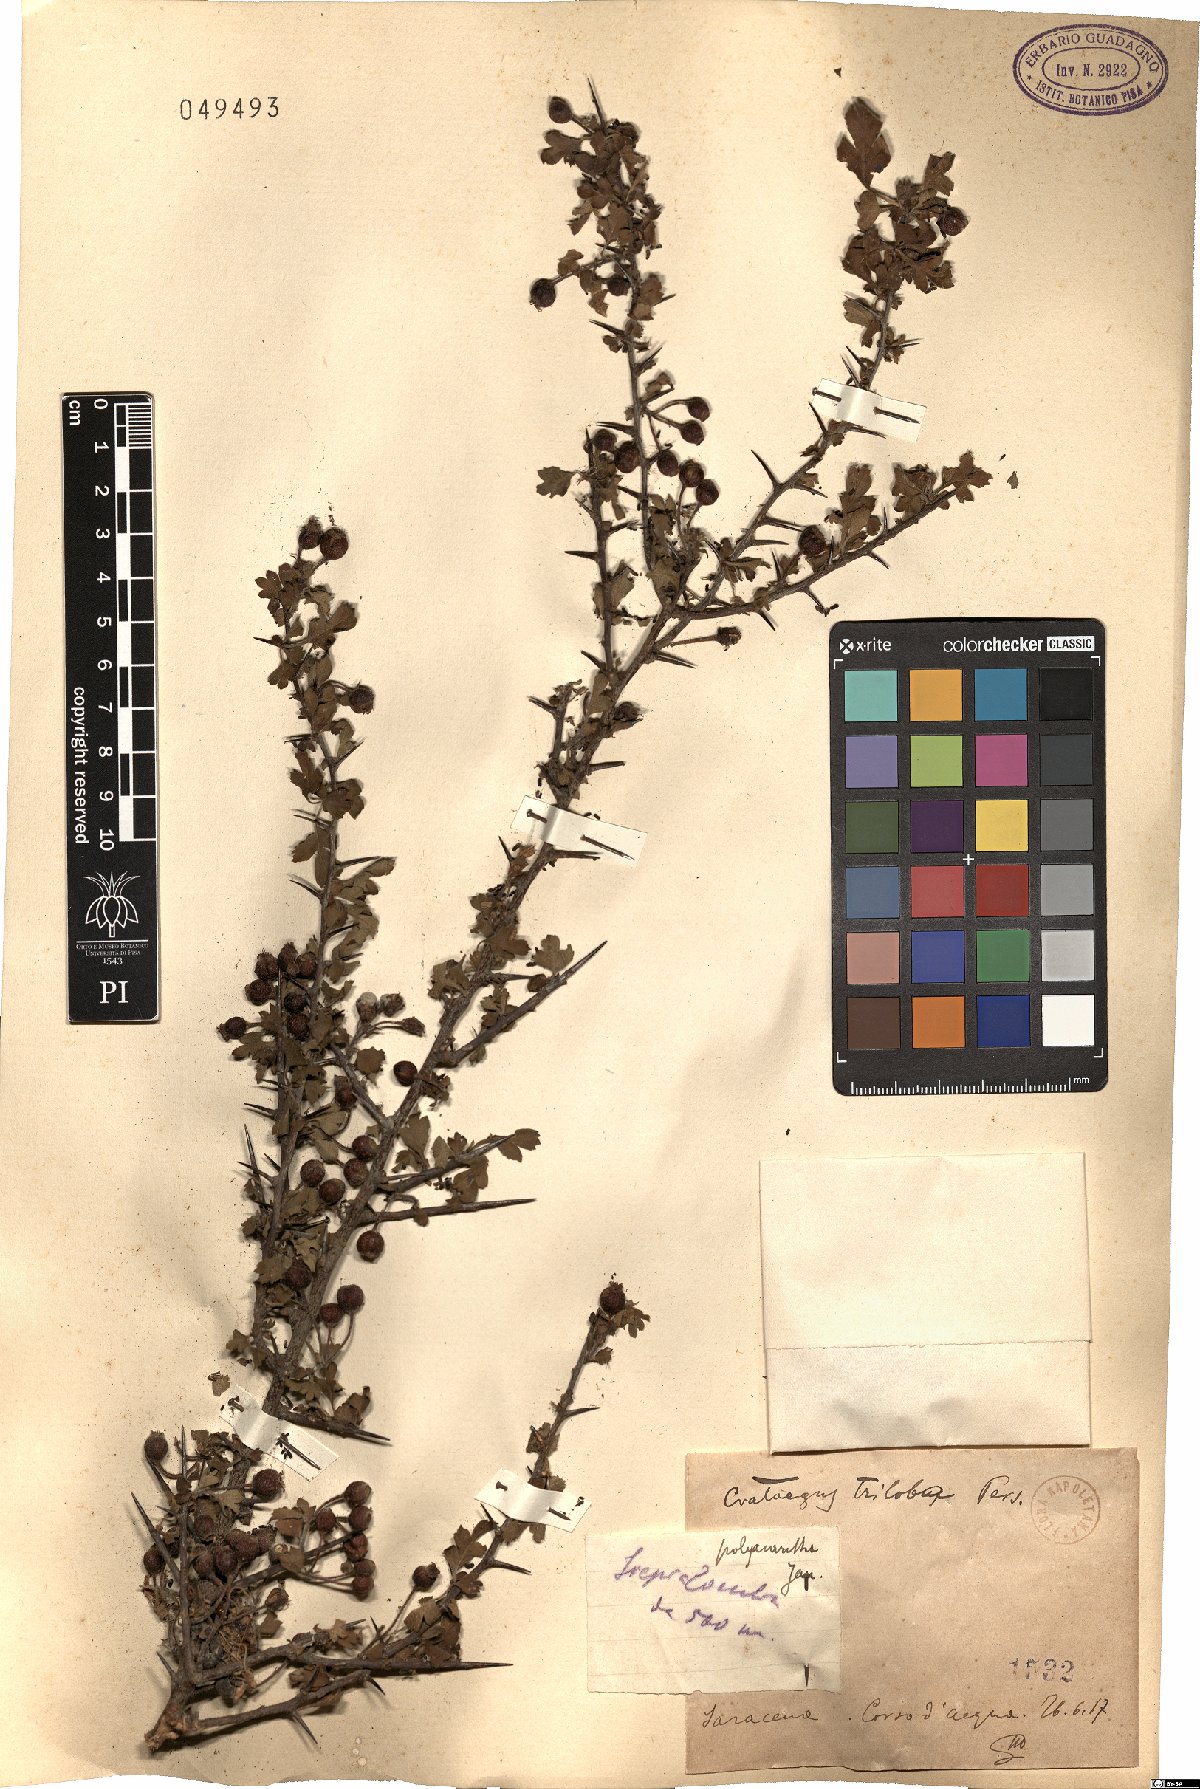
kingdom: Plantae
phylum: Tracheophyta
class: Magnoliopsida
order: Rosales
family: Rosaceae
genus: Crataegus
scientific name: Crataegus monogyna
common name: Hawthorn
